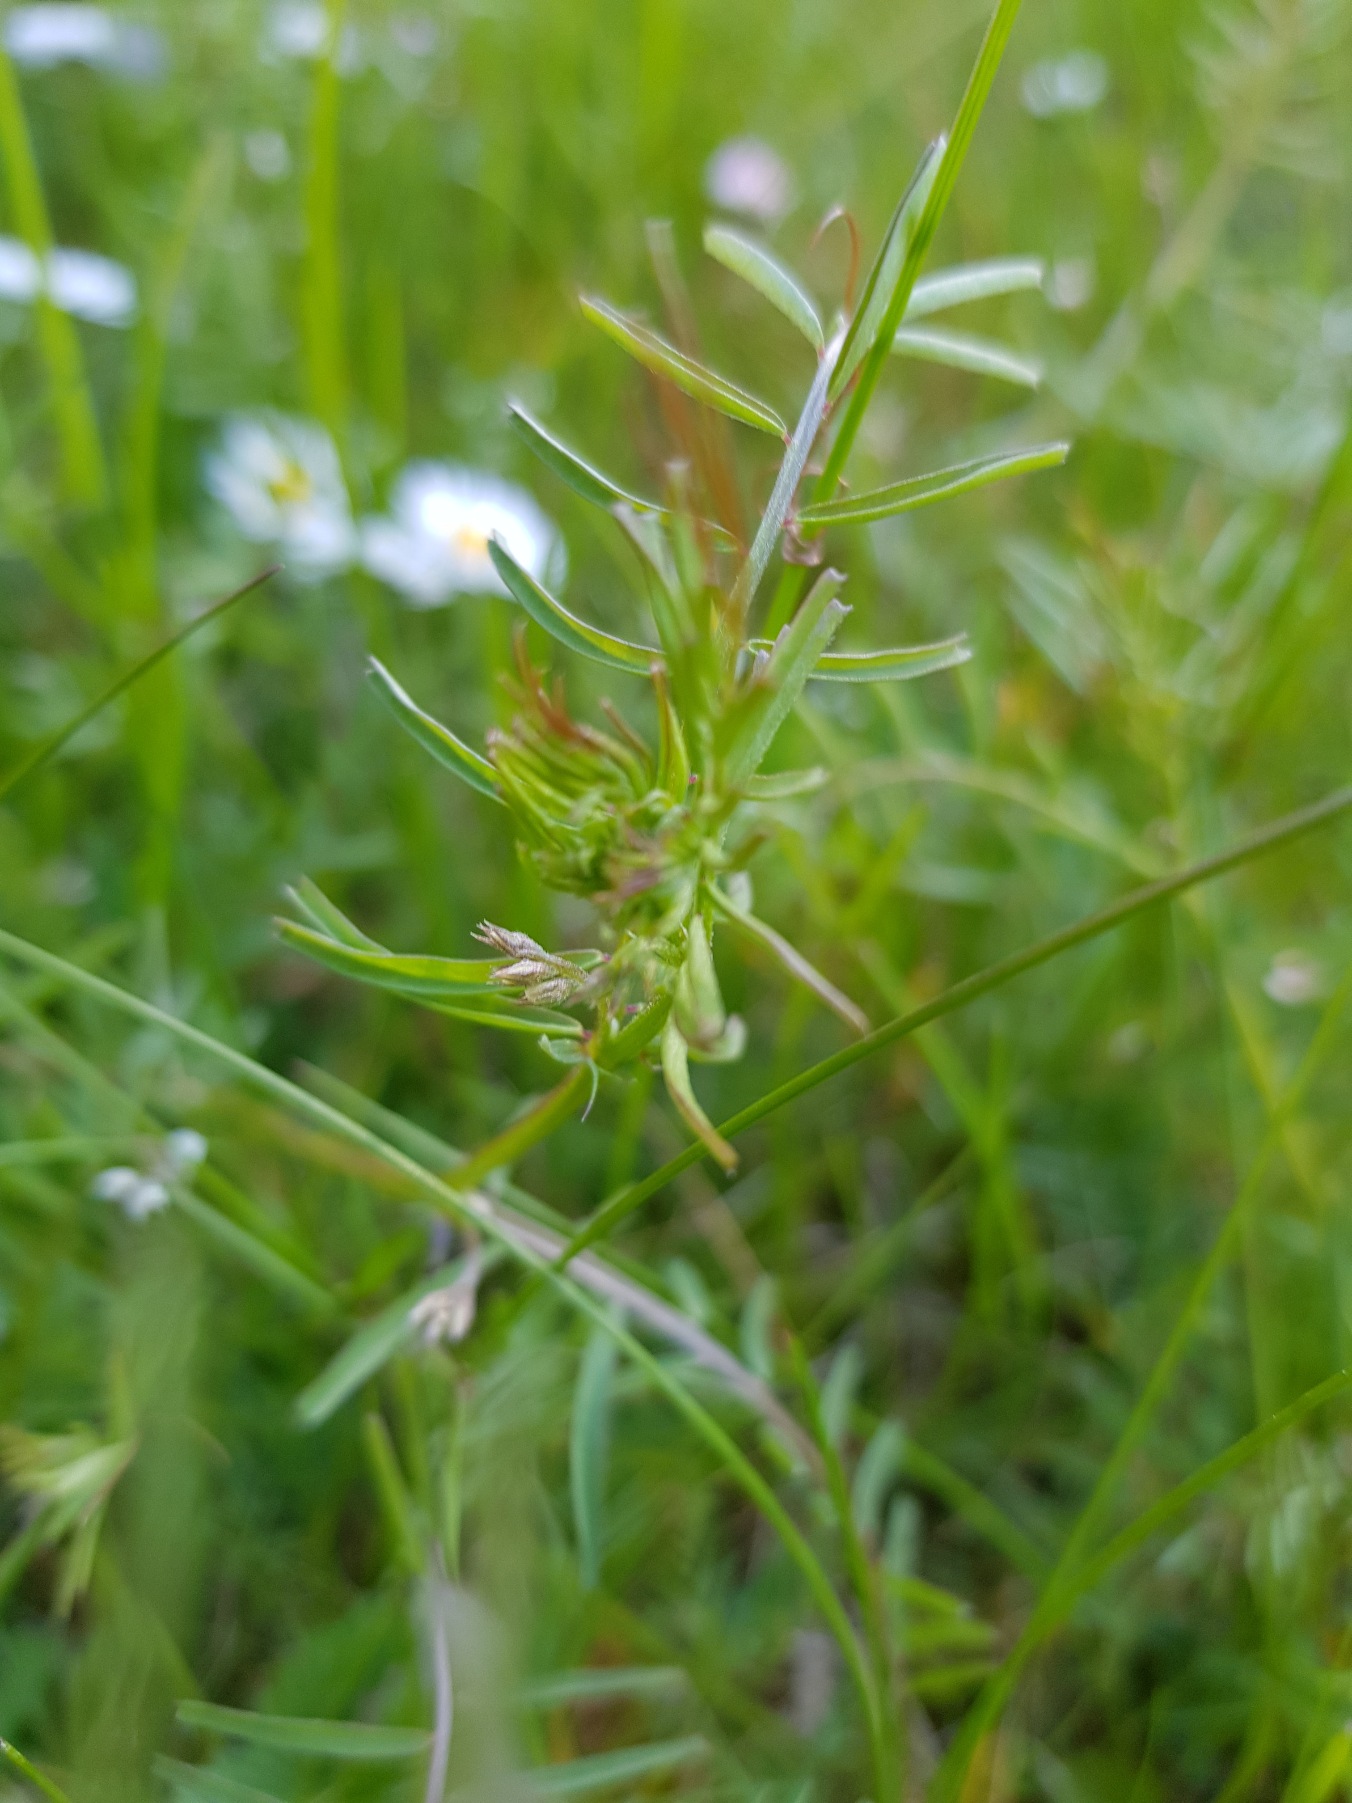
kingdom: Plantae
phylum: Tracheophyta
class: Magnoliopsida
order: Fabales
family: Fabaceae
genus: Vicia
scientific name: Vicia hirsuta
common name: Tofrøet vikke
